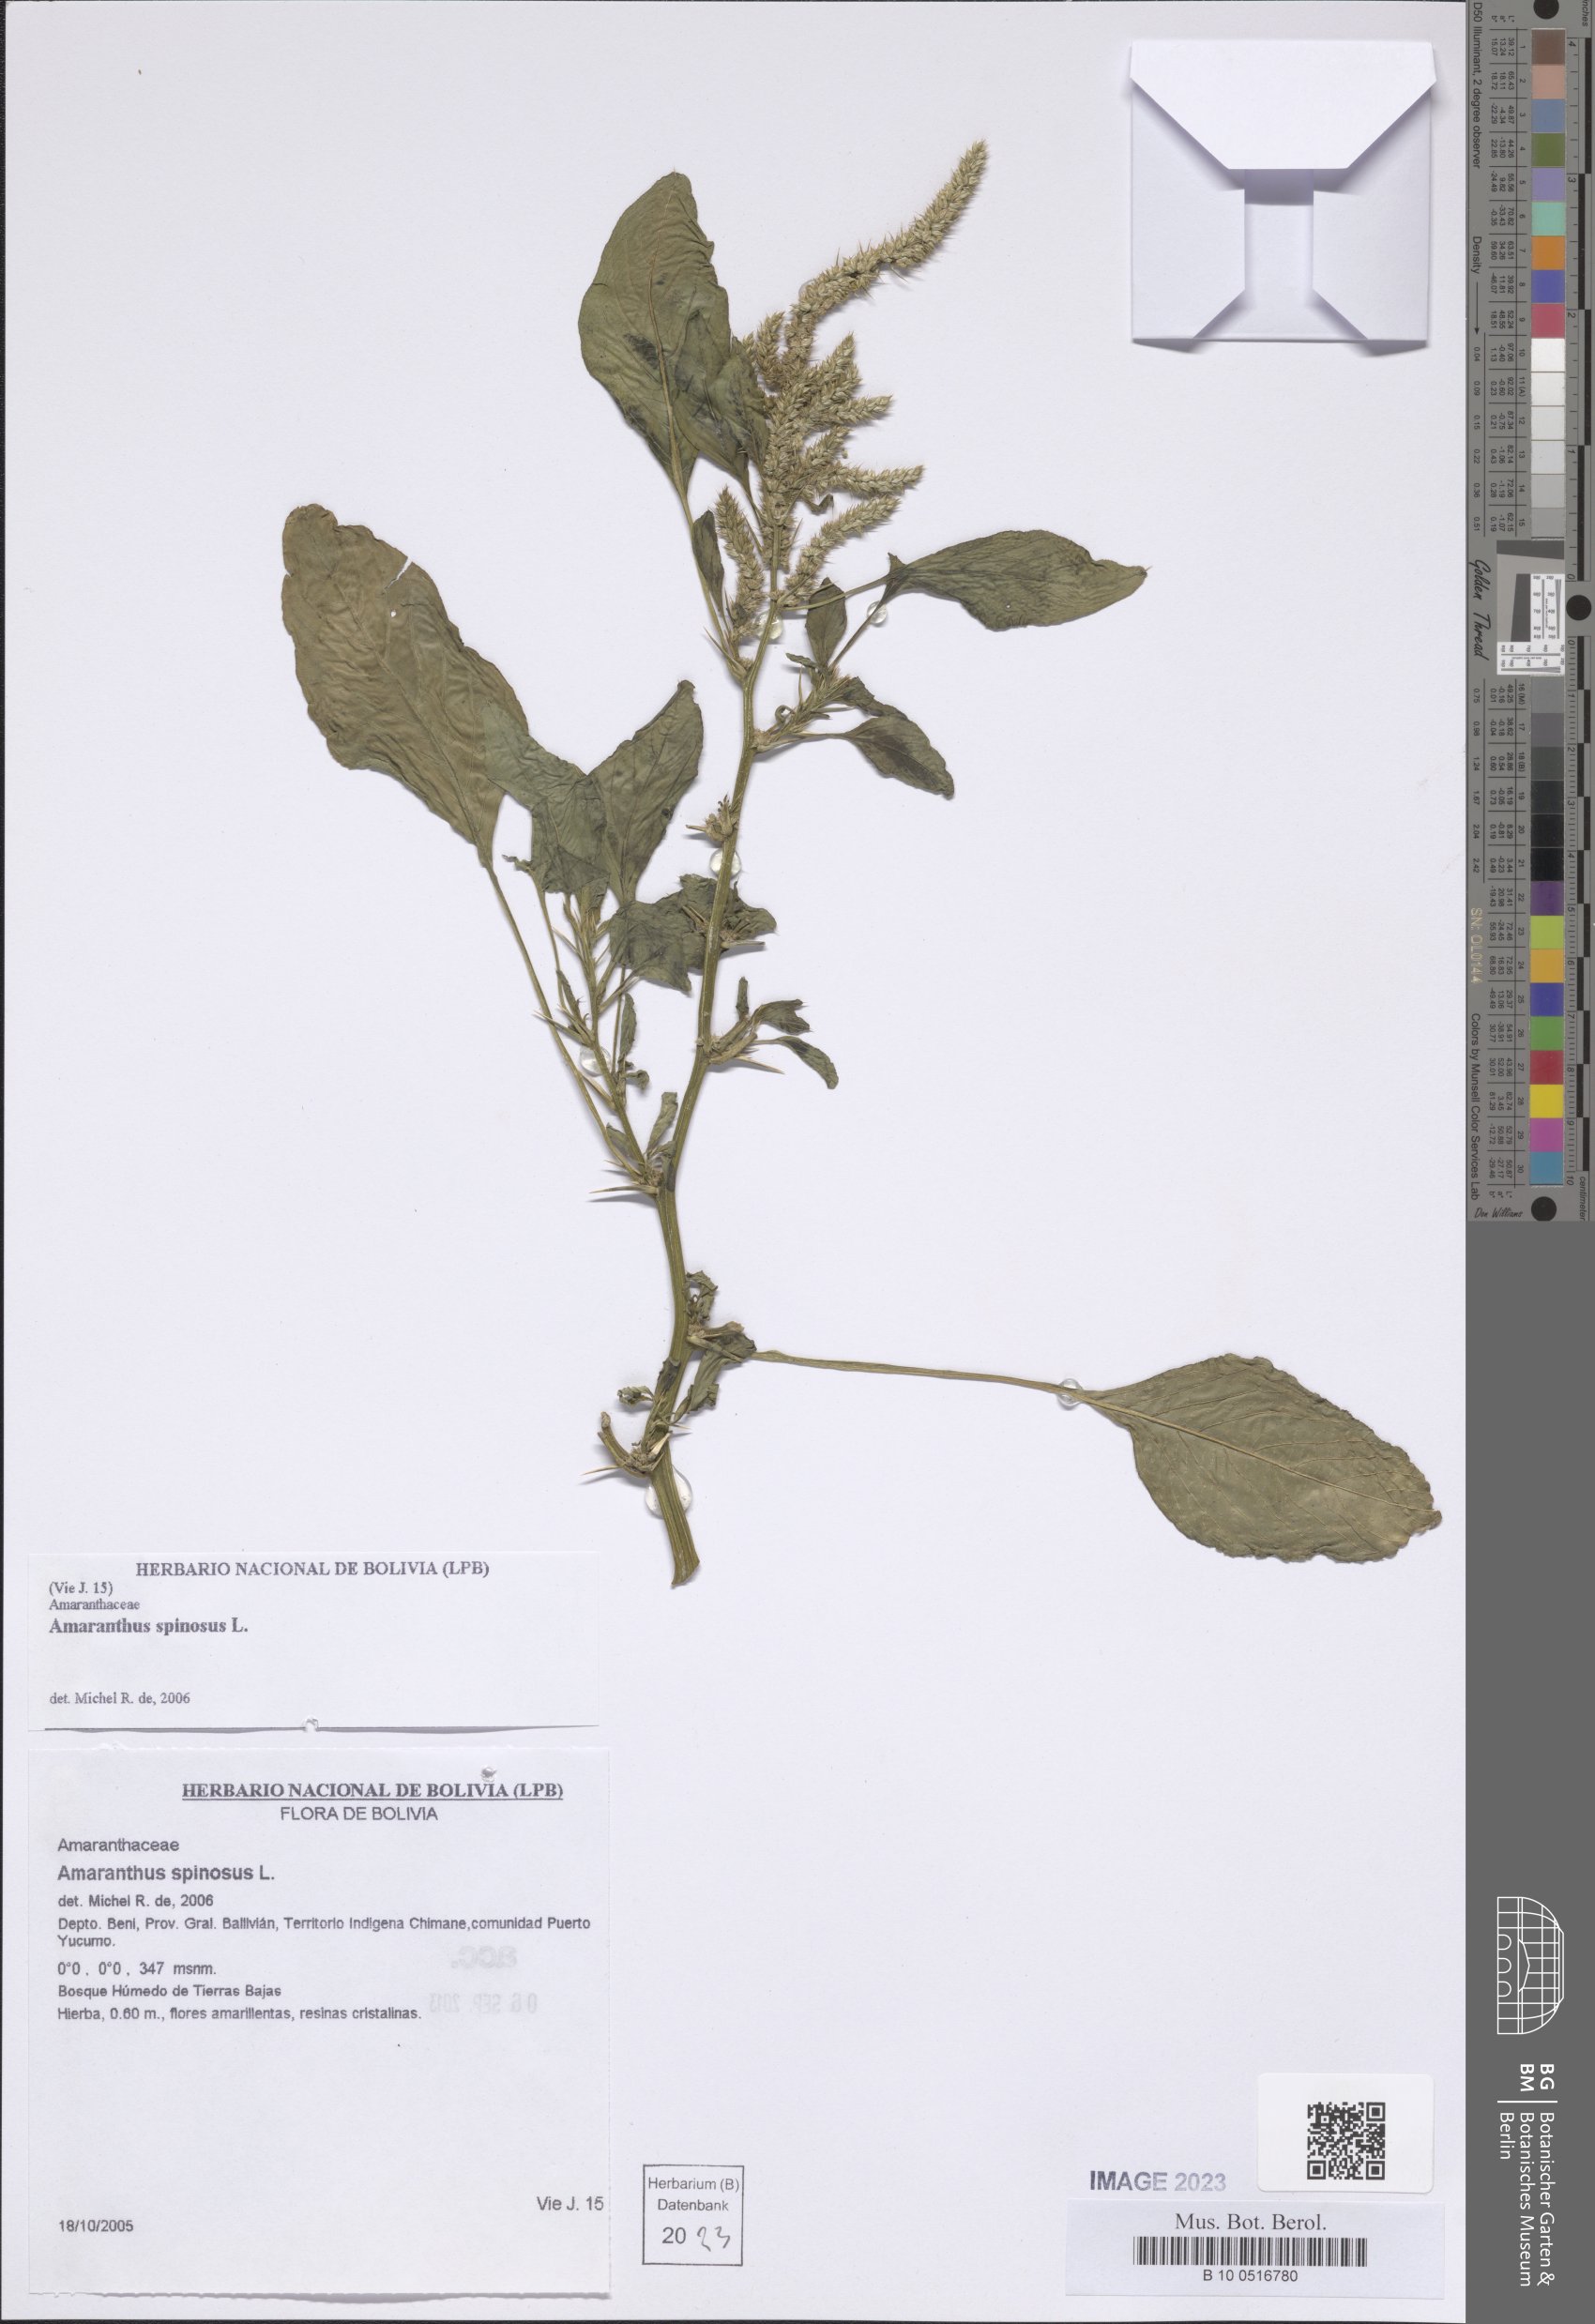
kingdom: Plantae
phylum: Tracheophyta
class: Magnoliopsida
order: Caryophyllales
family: Amaranthaceae
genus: Amaranthus
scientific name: Amaranthus spinosus
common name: Spiny amaranth
